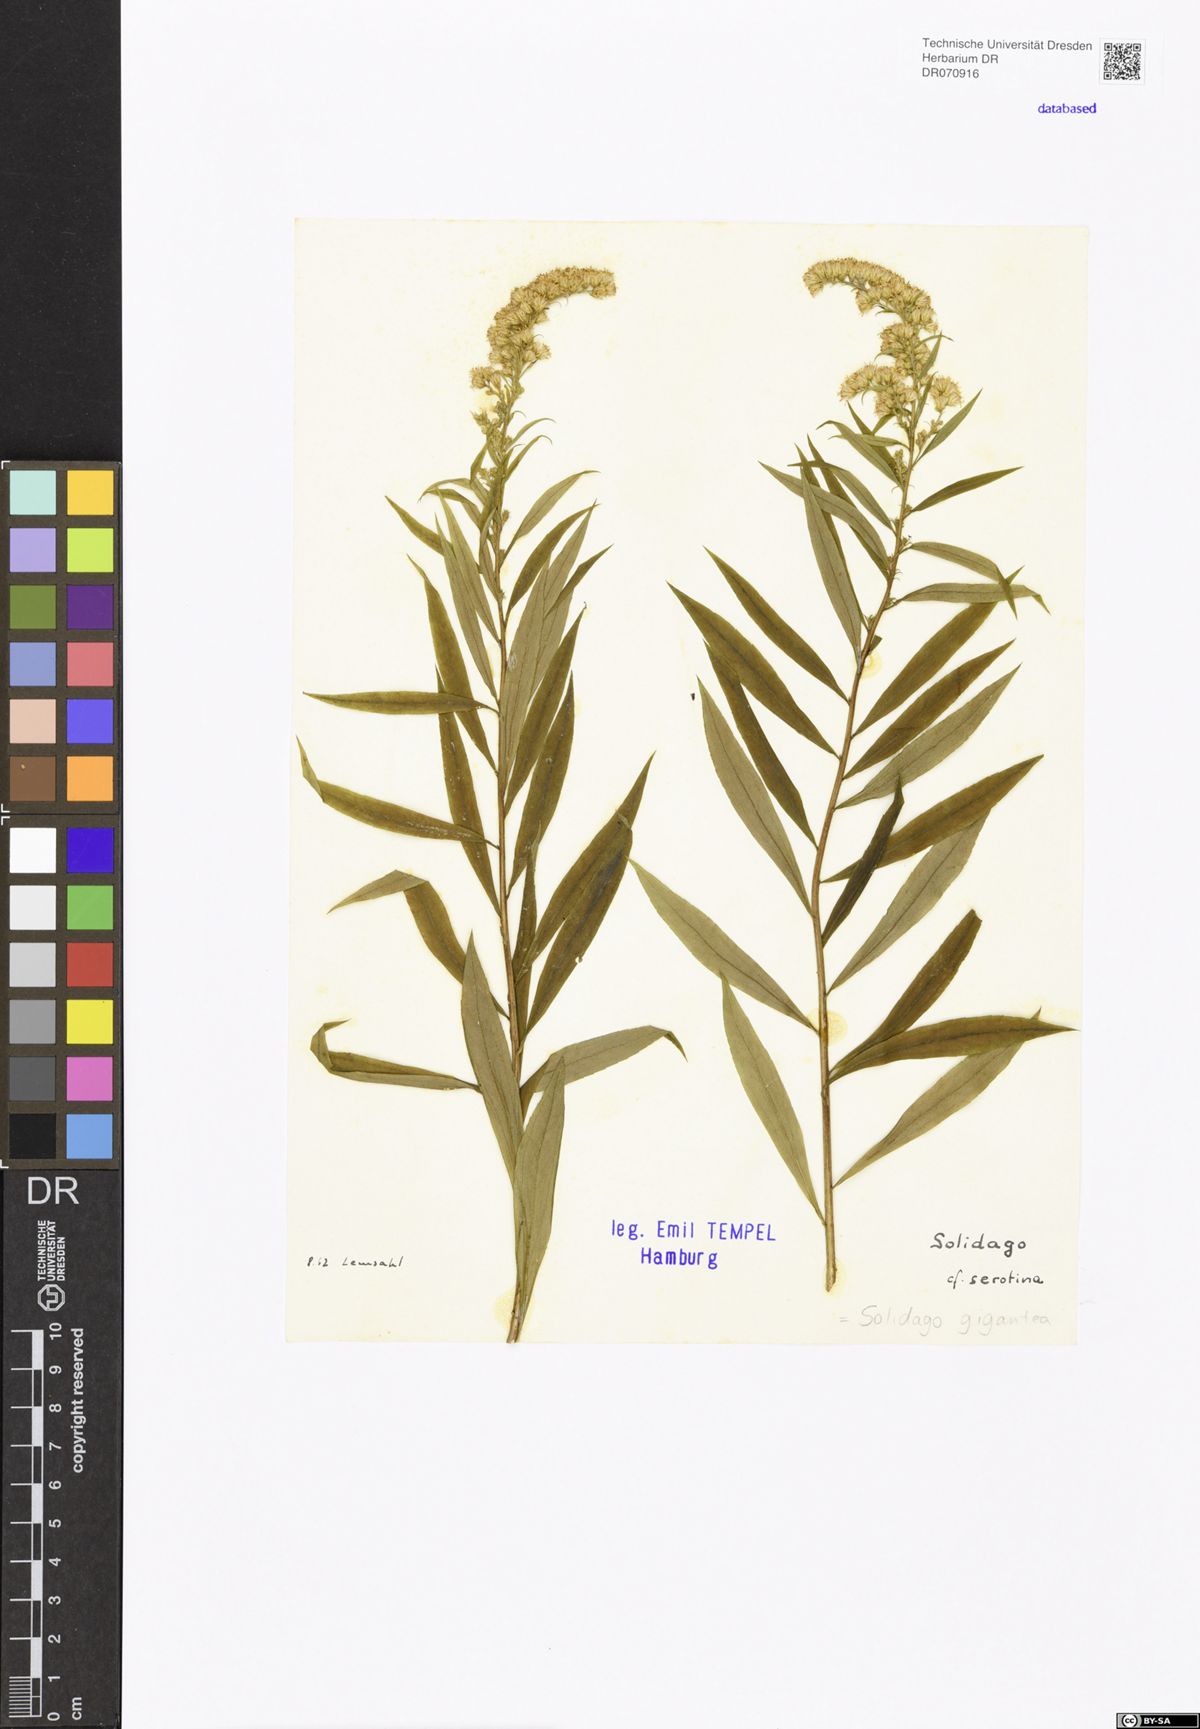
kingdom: Plantae
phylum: Tracheophyta
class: Magnoliopsida
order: Asterales
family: Asteraceae
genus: Solidago
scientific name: Solidago gigantea
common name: Giant goldenrod
